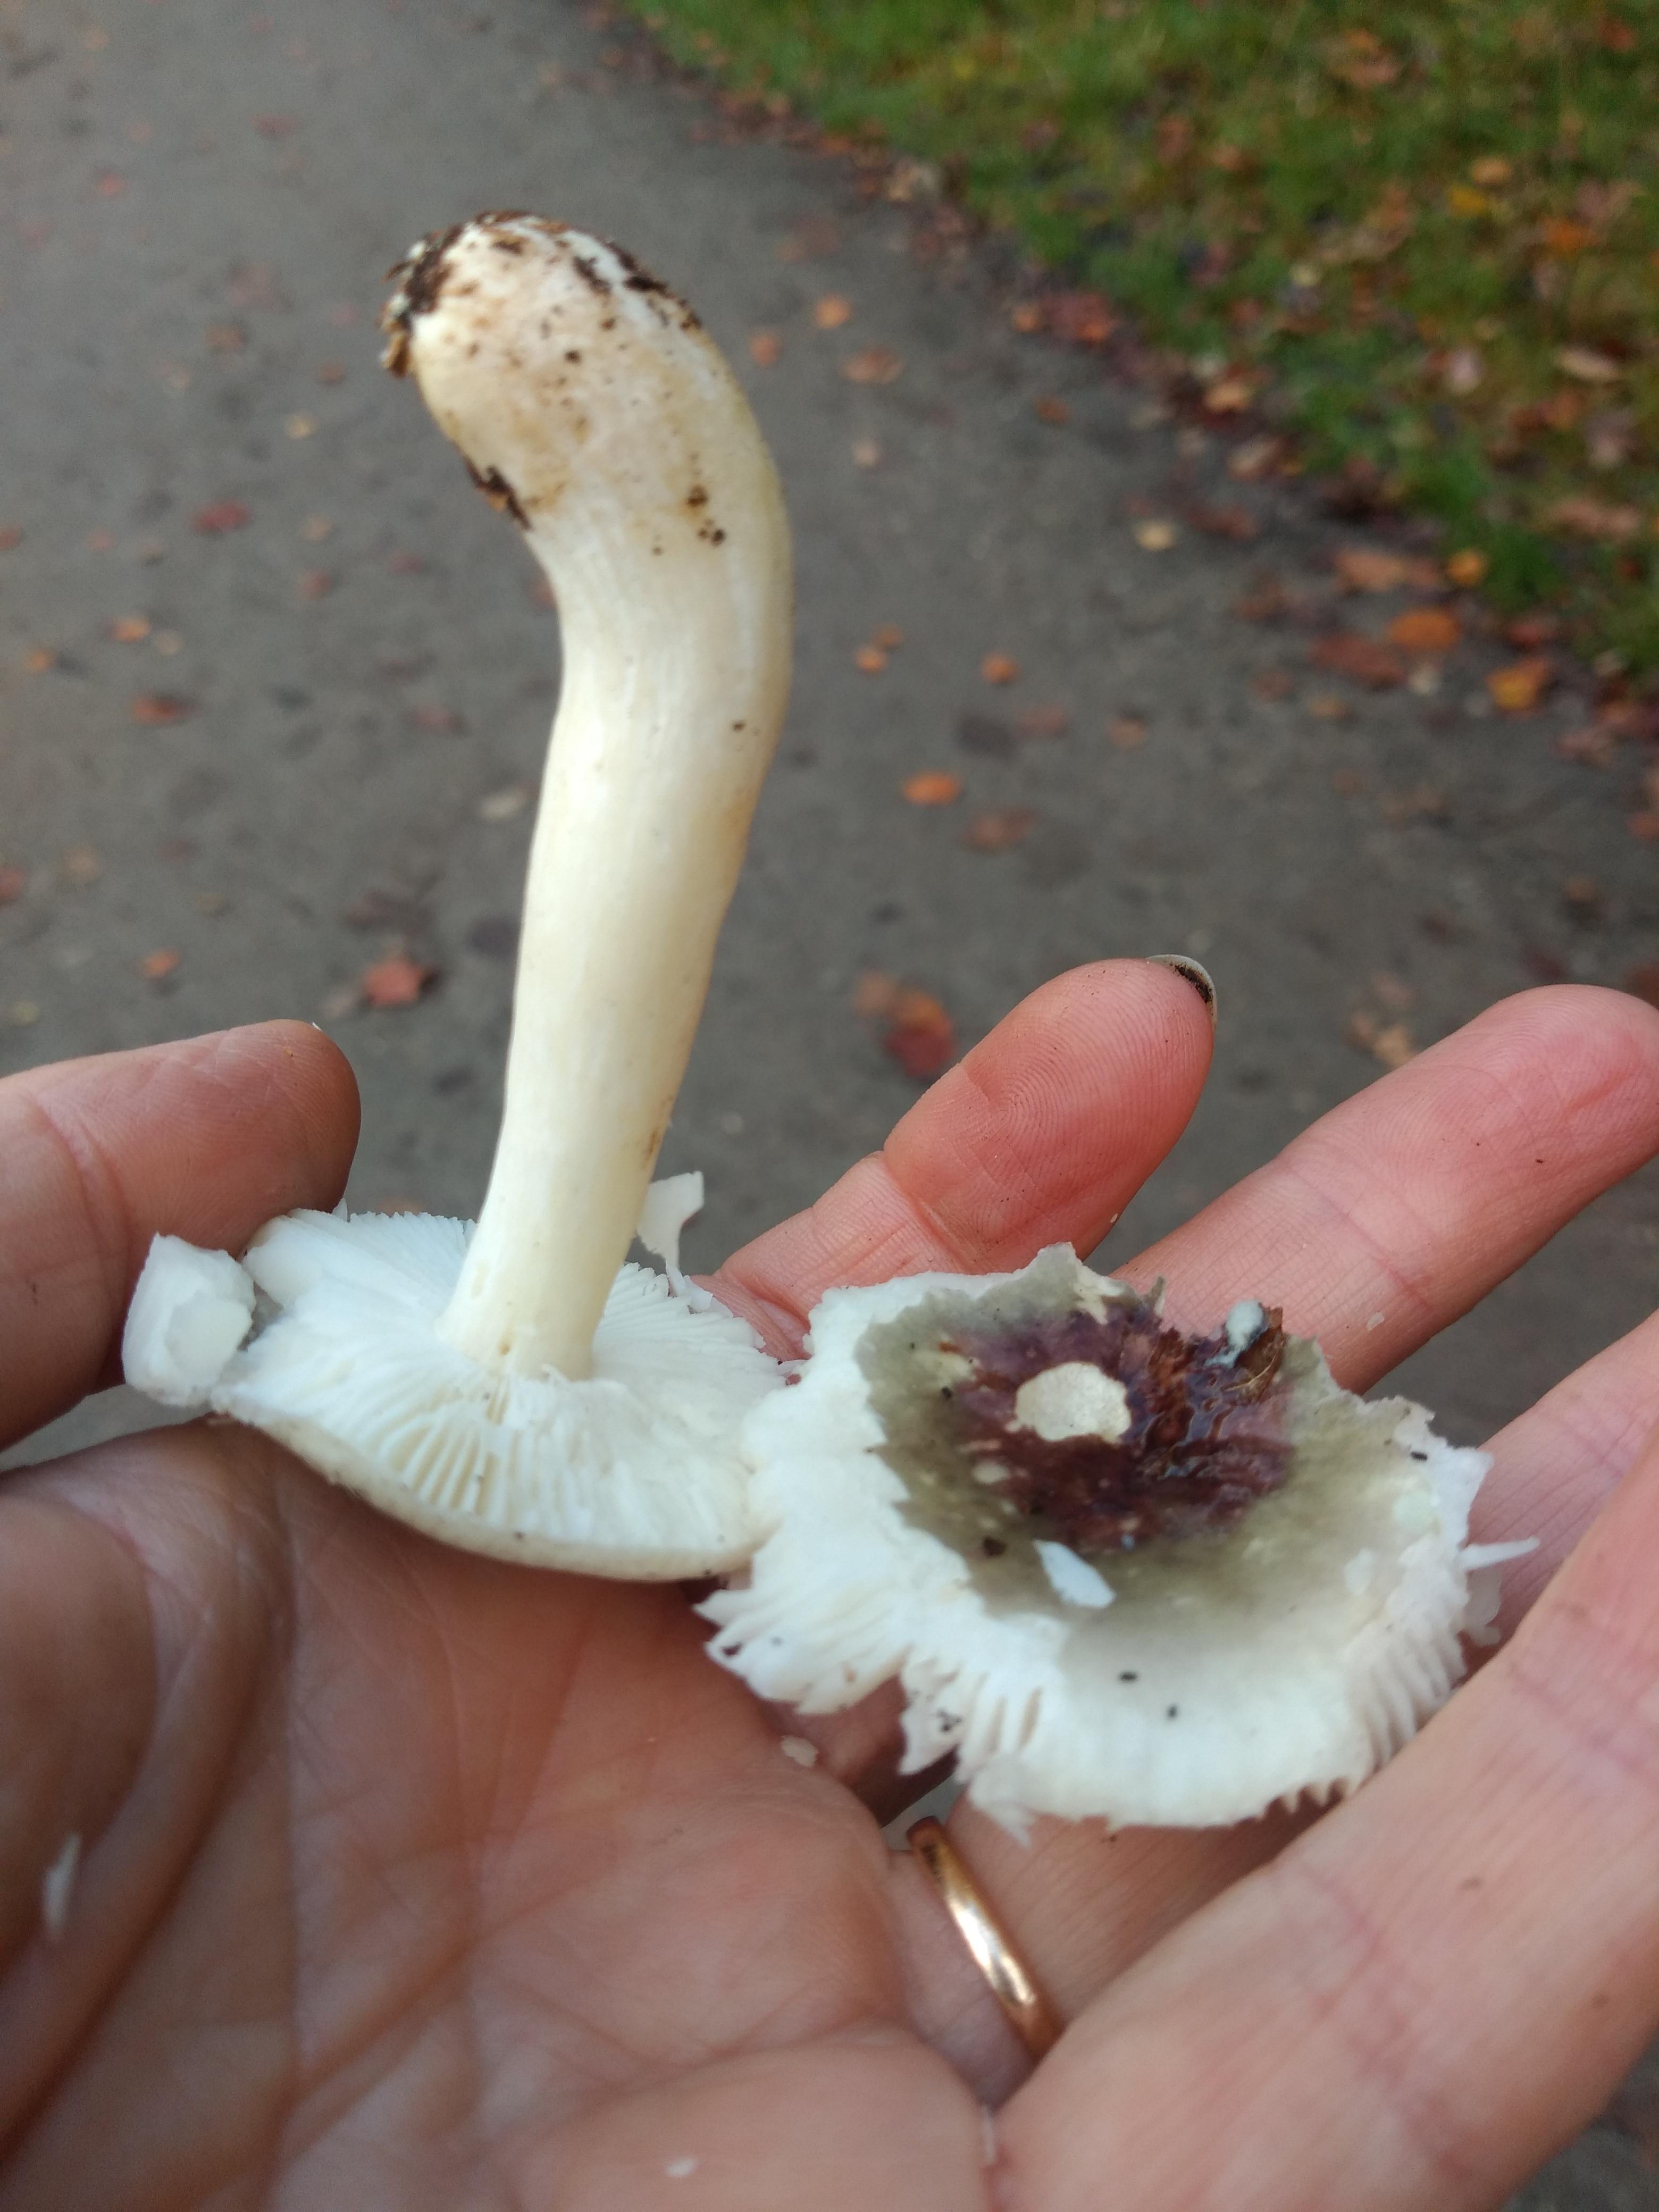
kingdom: Fungi
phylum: Basidiomycota
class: Agaricomycetes
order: Russulales
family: Russulaceae
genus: Russula
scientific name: Russula
